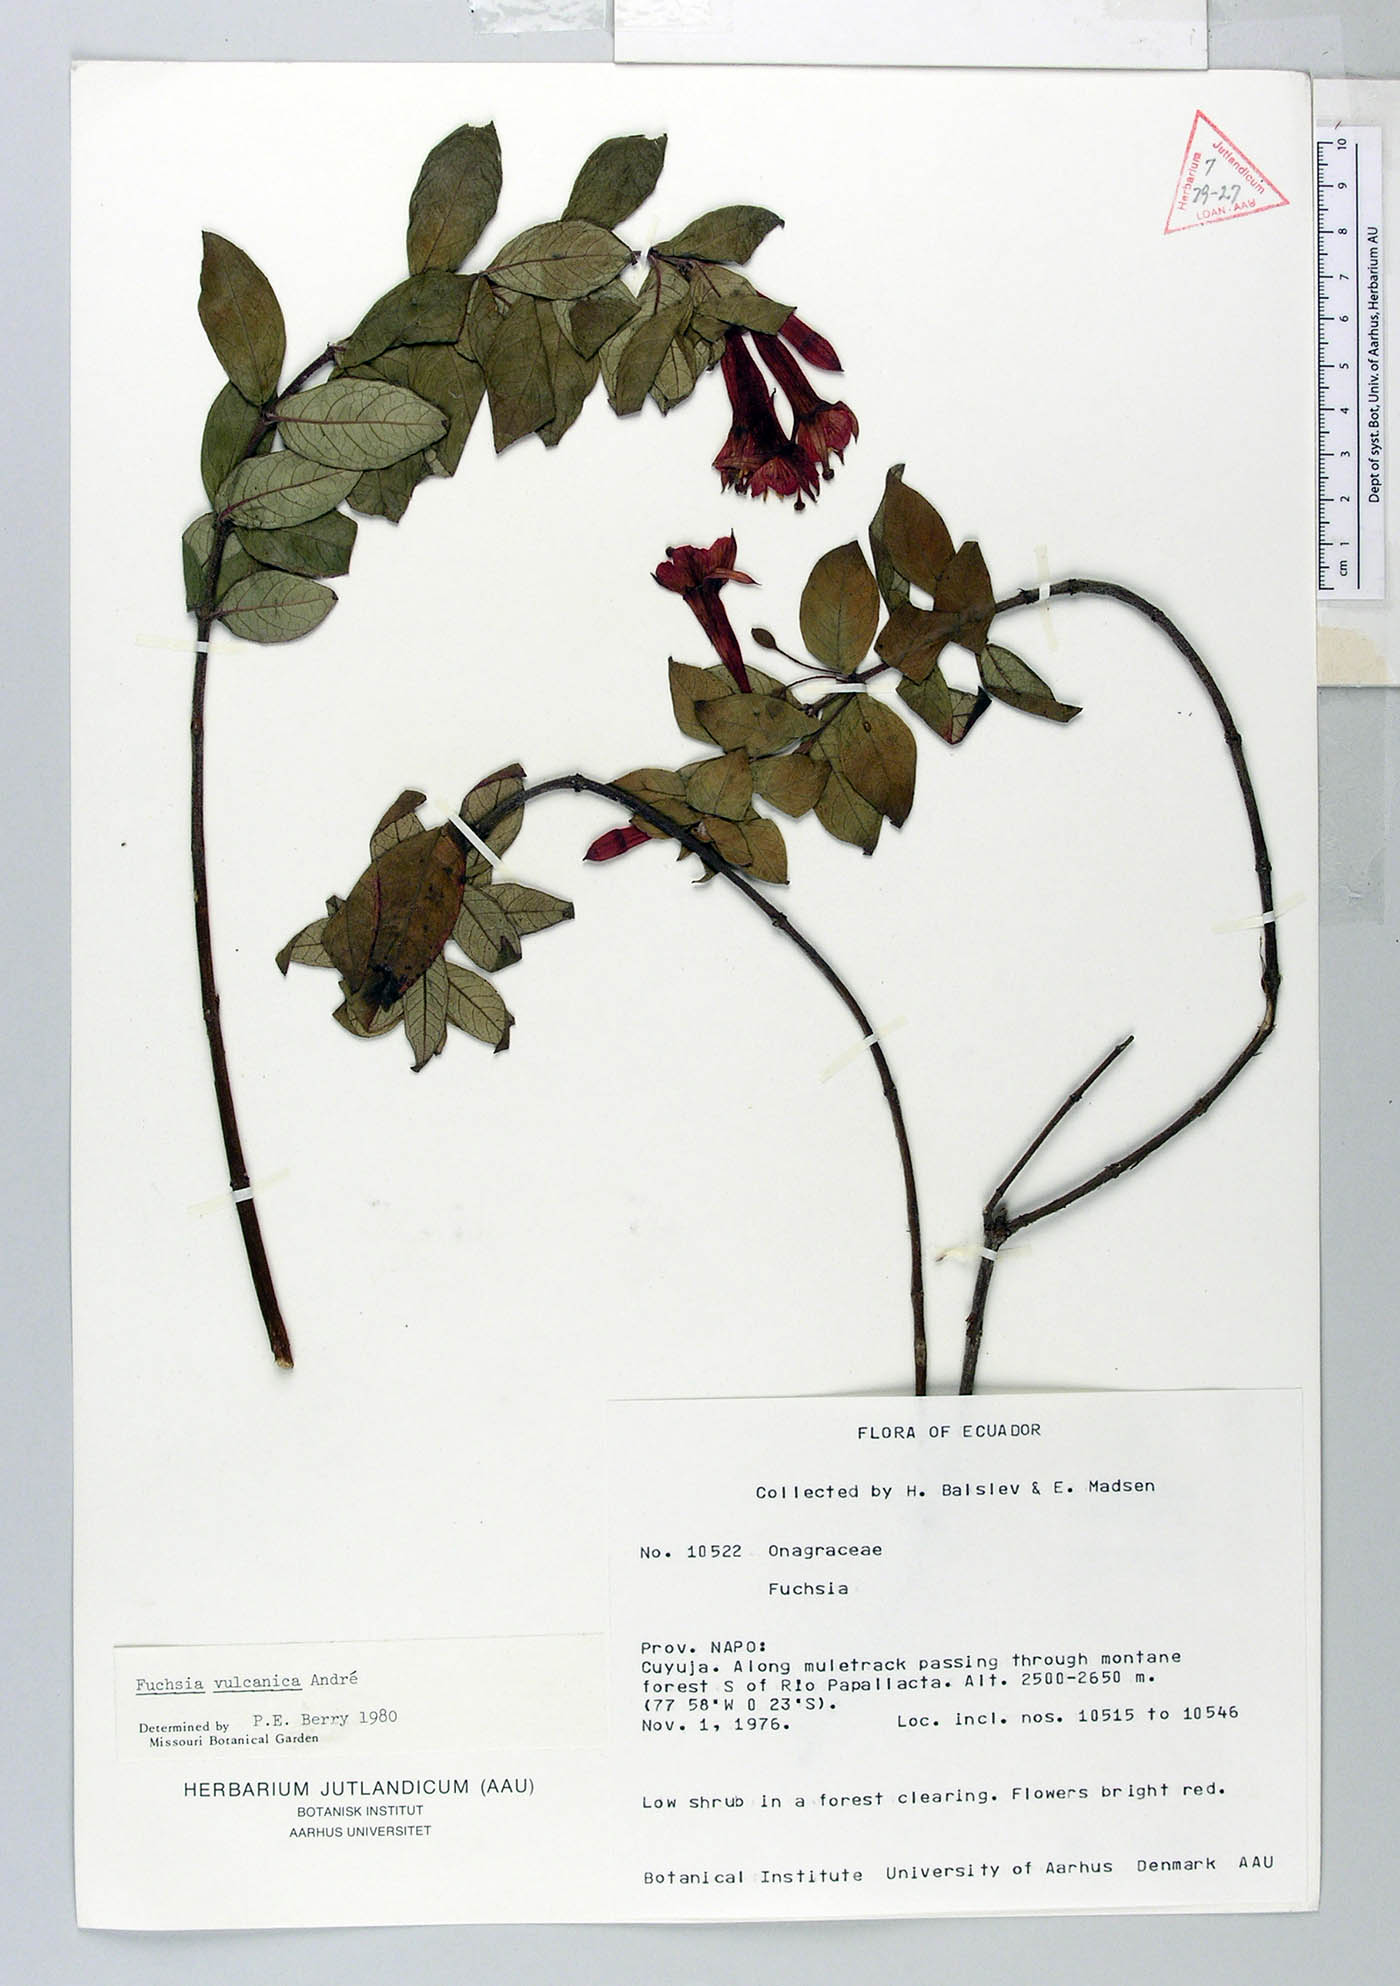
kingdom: Plantae
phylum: Tracheophyta
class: Magnoliopsida
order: Myrtales
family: Onagraceae
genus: Fuchsia
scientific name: Fuchsia vulcanica
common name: Volcan's fuchsia
